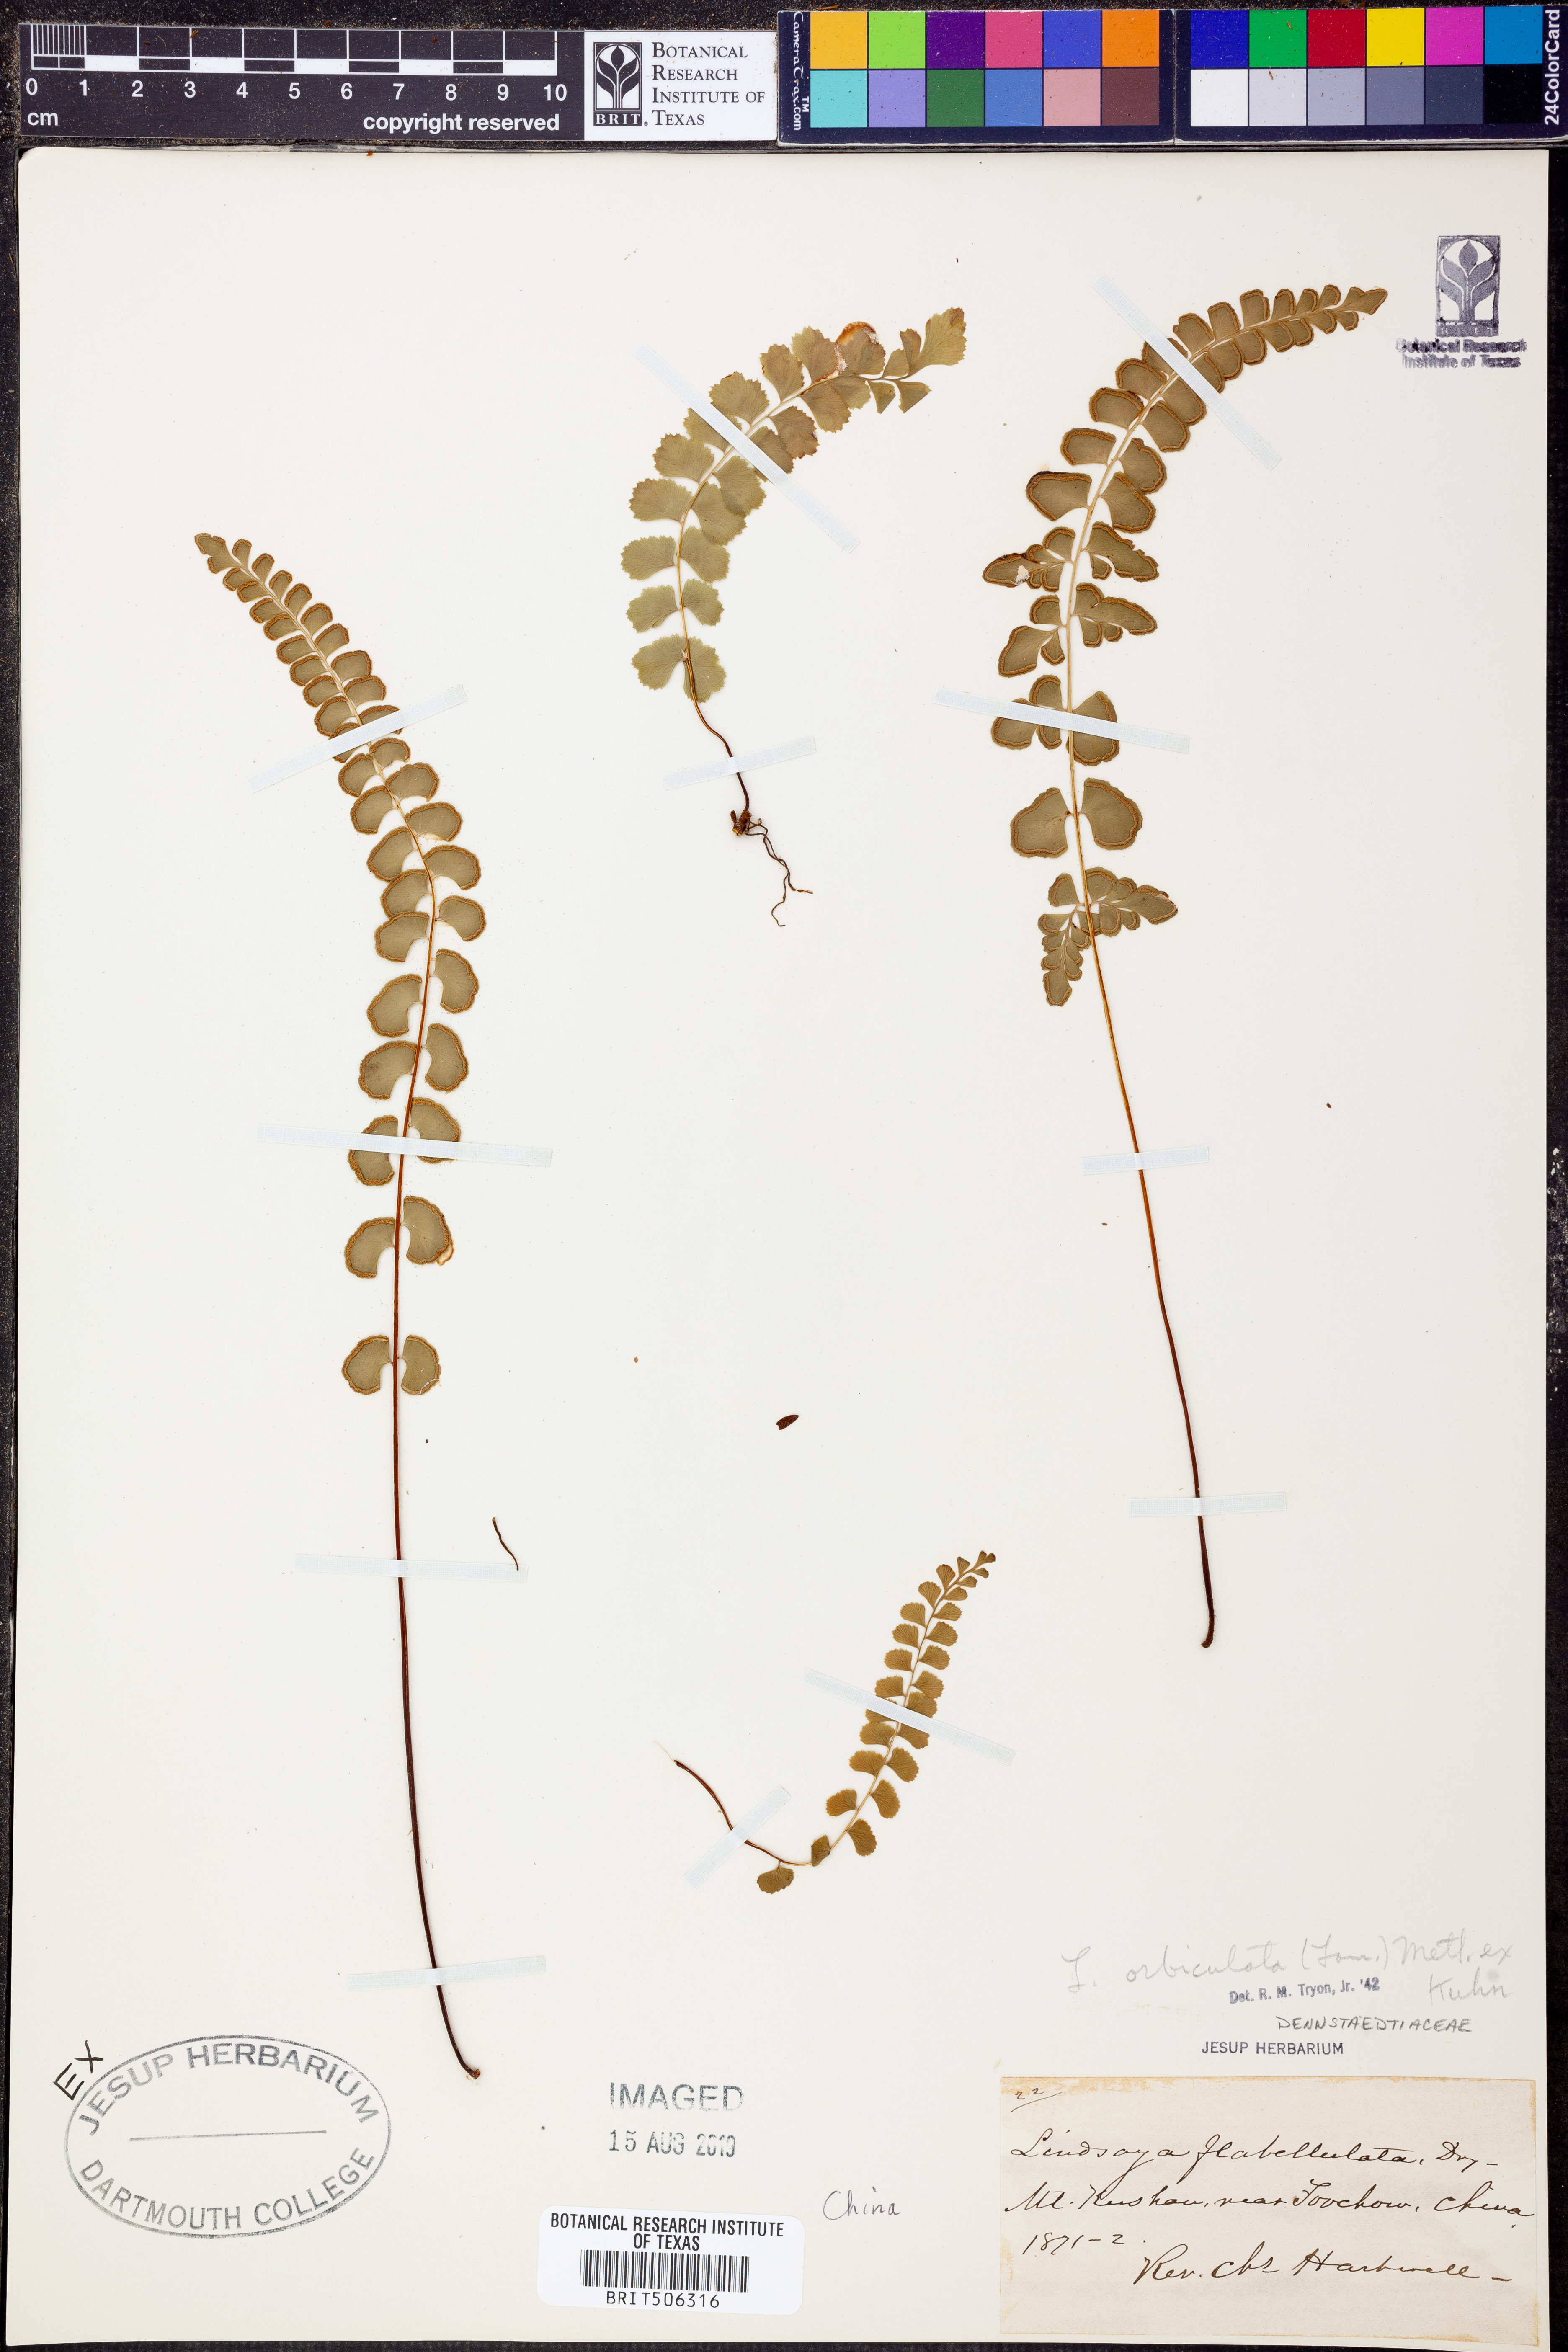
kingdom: Plantae
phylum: Tracheophyta
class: Polypodiopsida
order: Polypodiales
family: Lindsaeaceae
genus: Lindsaea
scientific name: Lindsaea orbiculata
